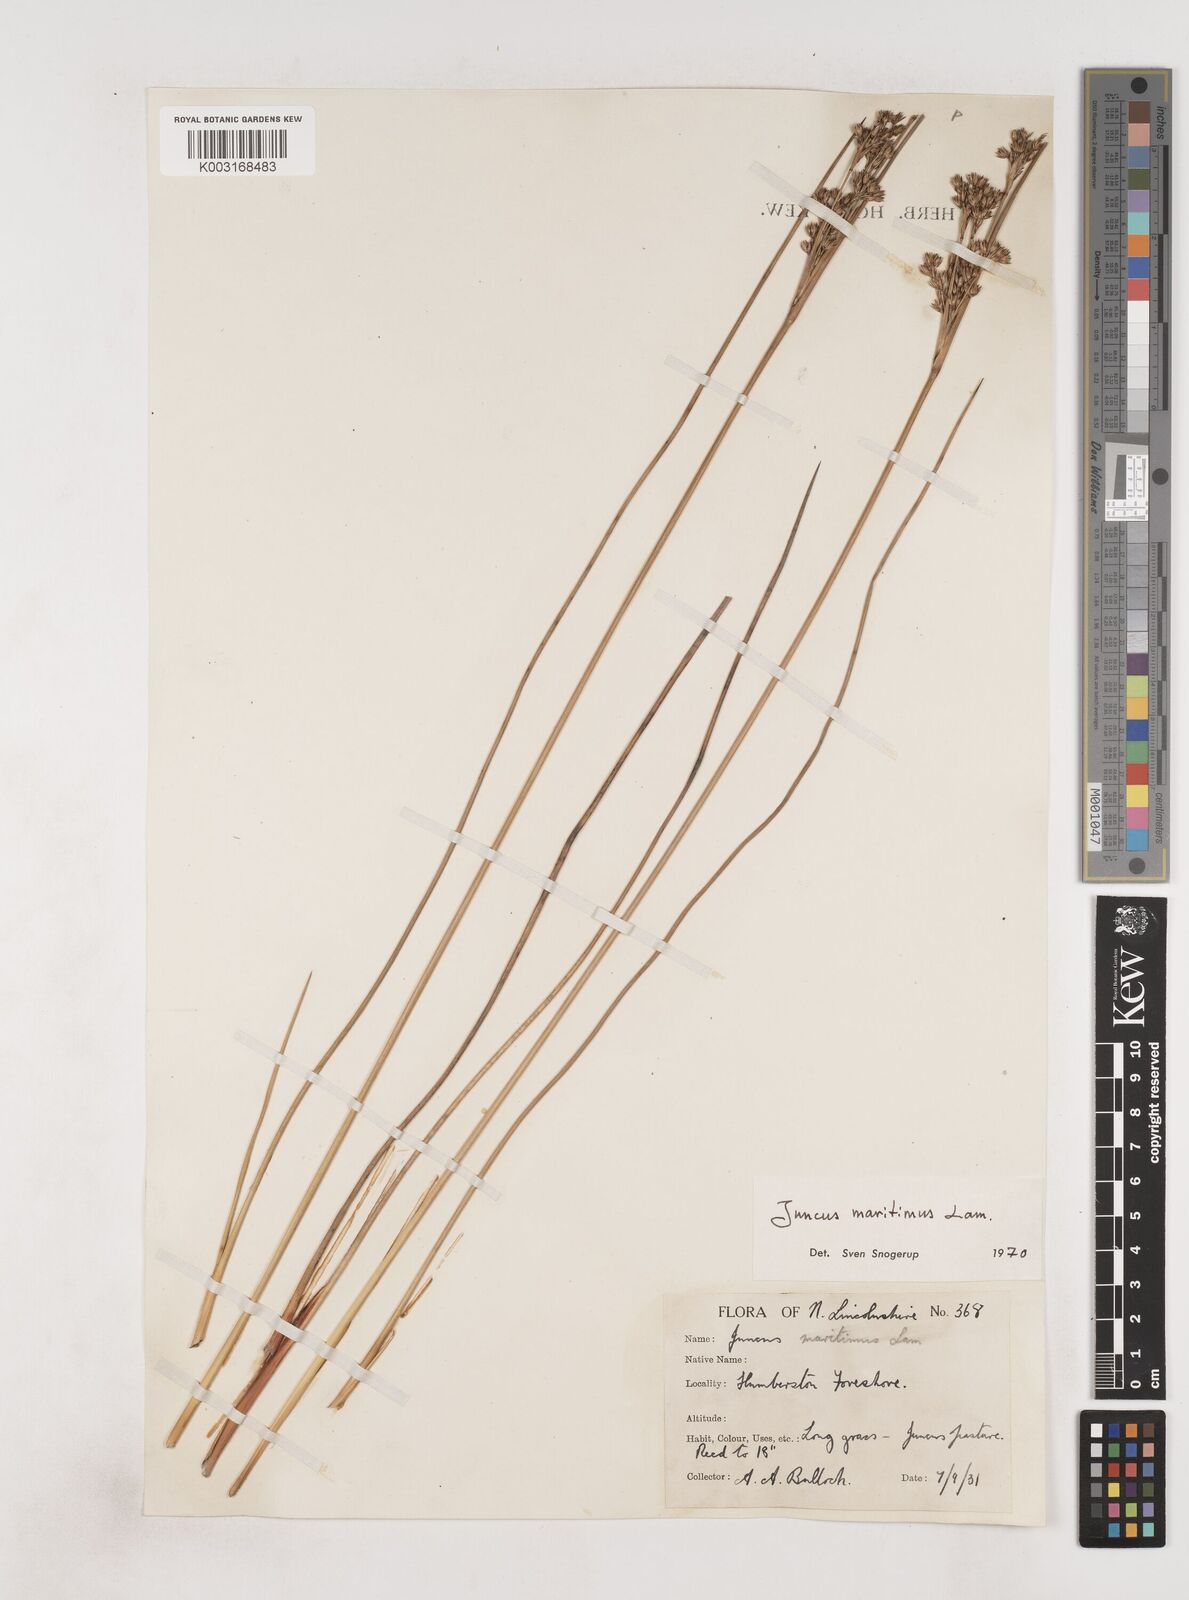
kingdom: Plantae
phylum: Tracheophyta
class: Liliopsida
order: Poales
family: Juncaceae
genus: Juncus
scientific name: Juncus maritimus
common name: Sea rush
